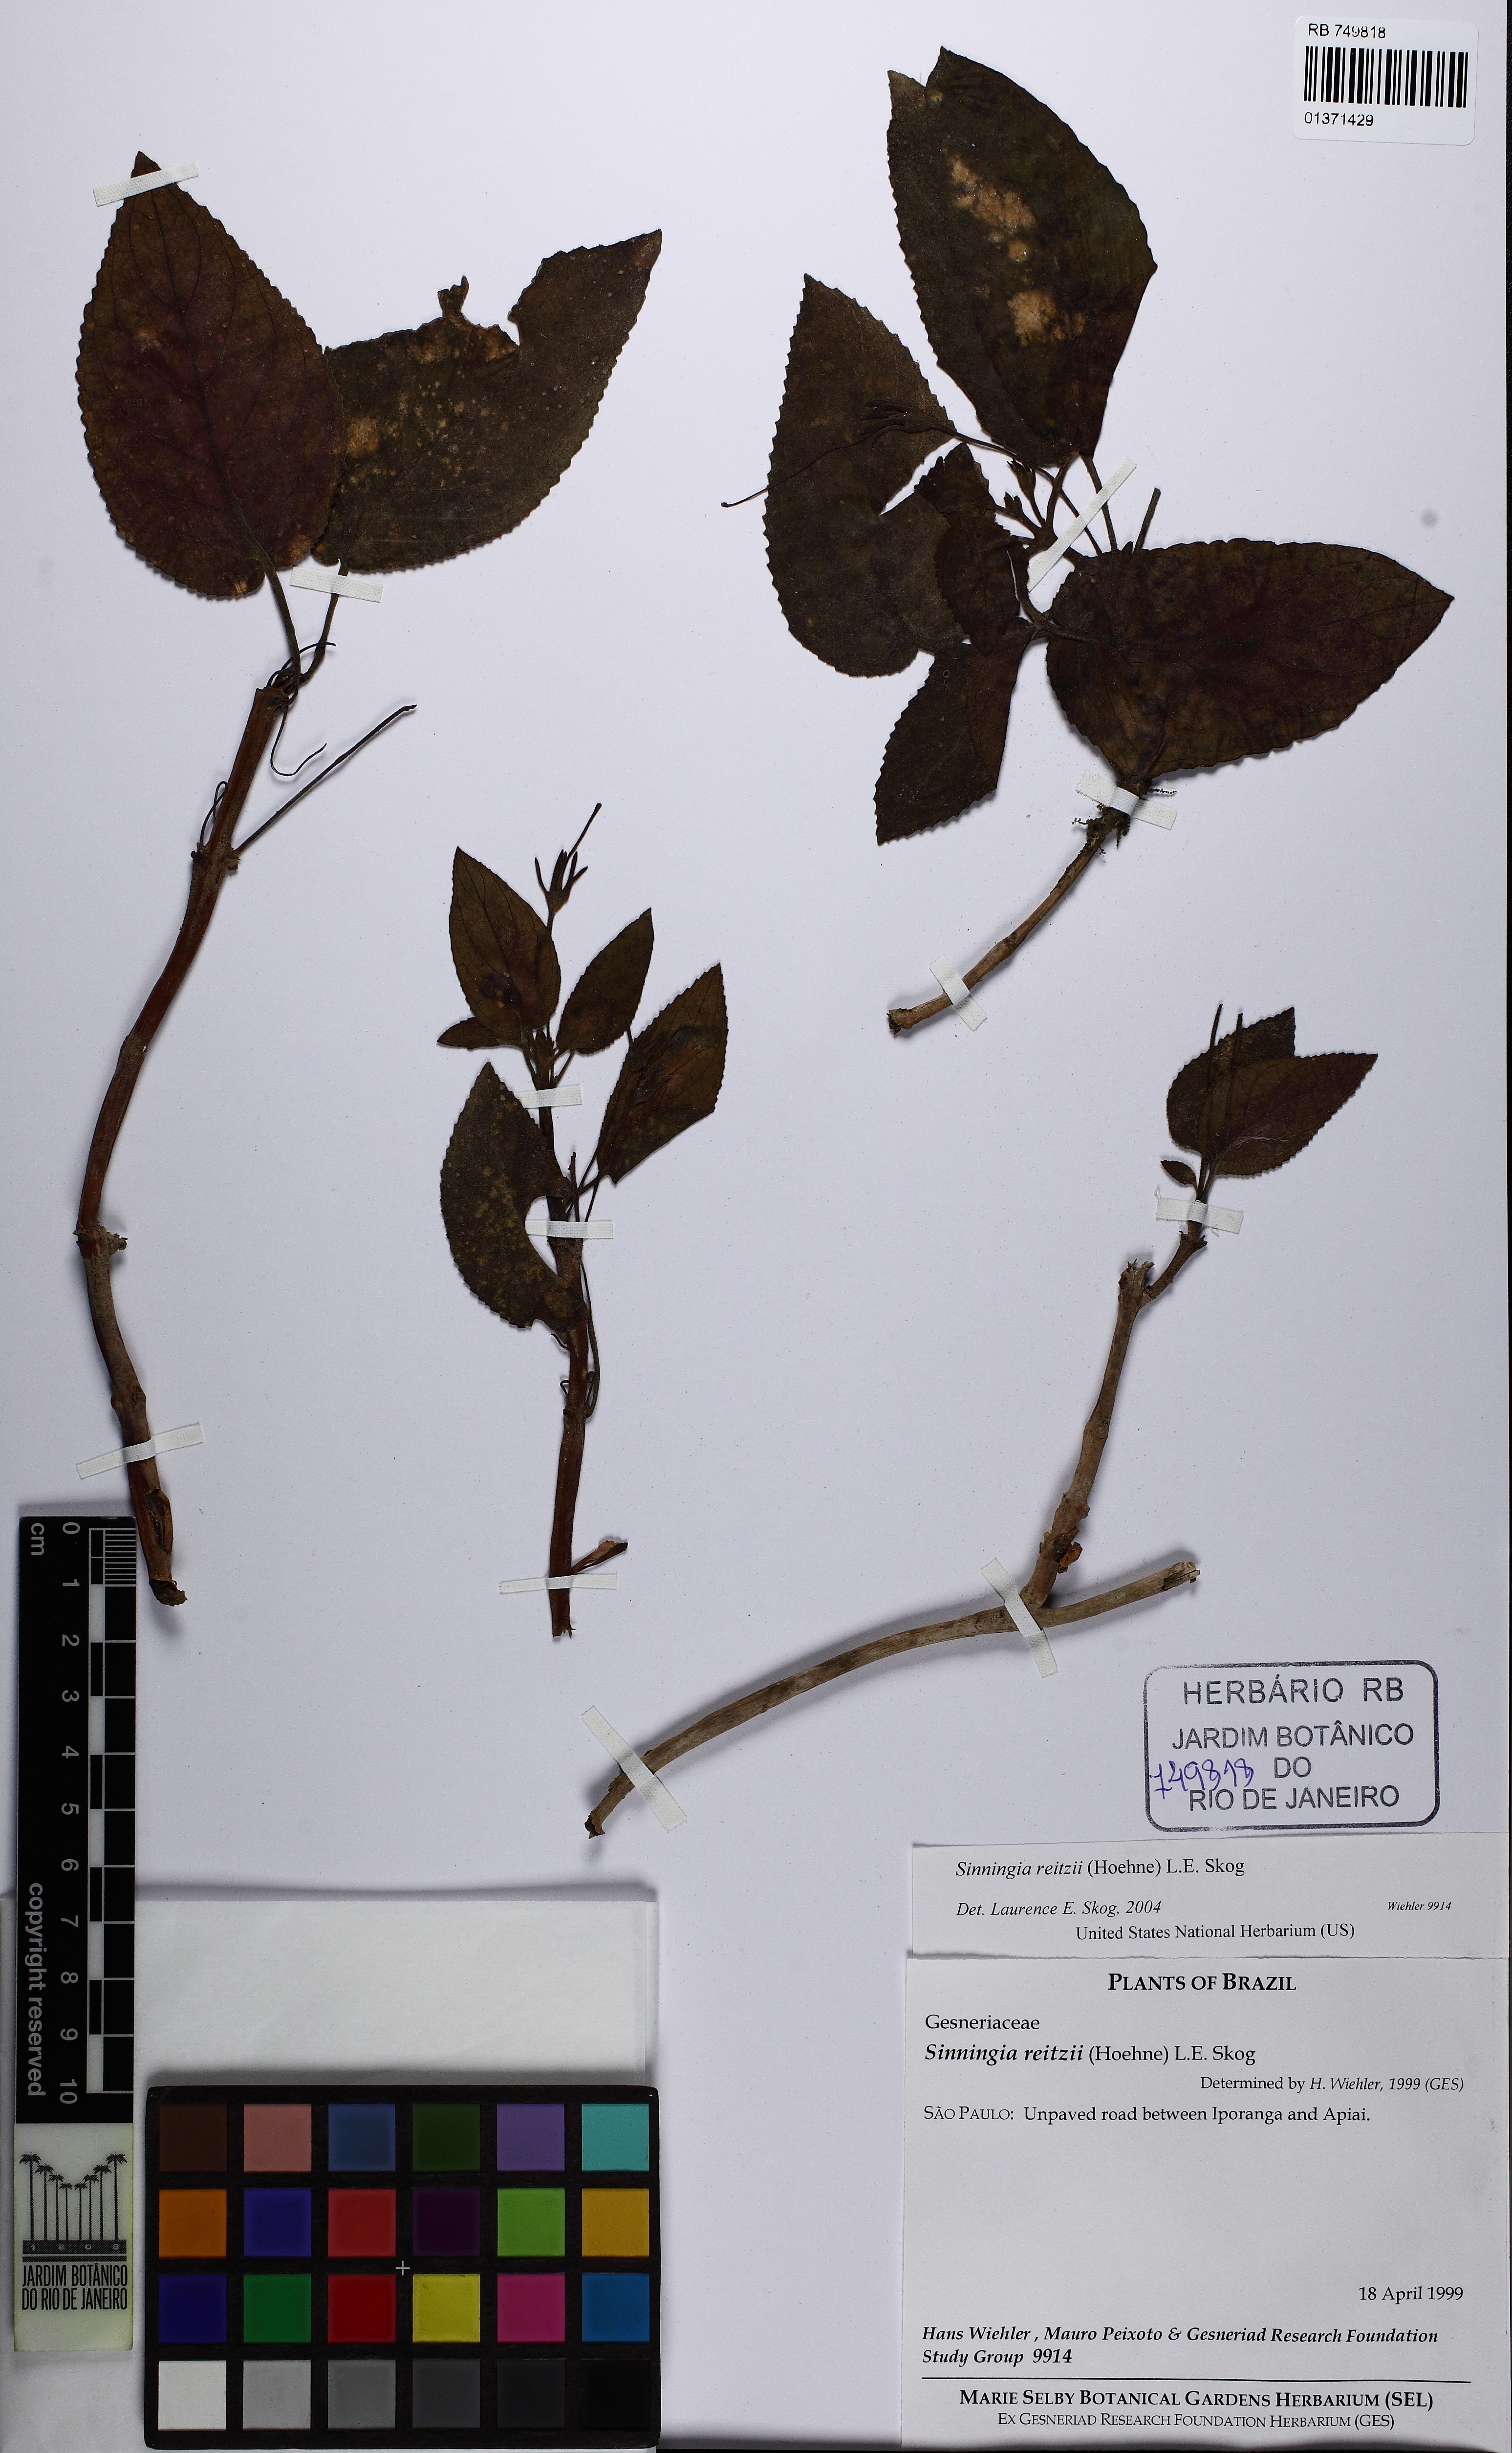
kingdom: Plantae
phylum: Tracheophyta
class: Magnoliopsida
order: Lamiales
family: Gesneriaceae
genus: Sinningia
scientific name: Sinningia reitzii
